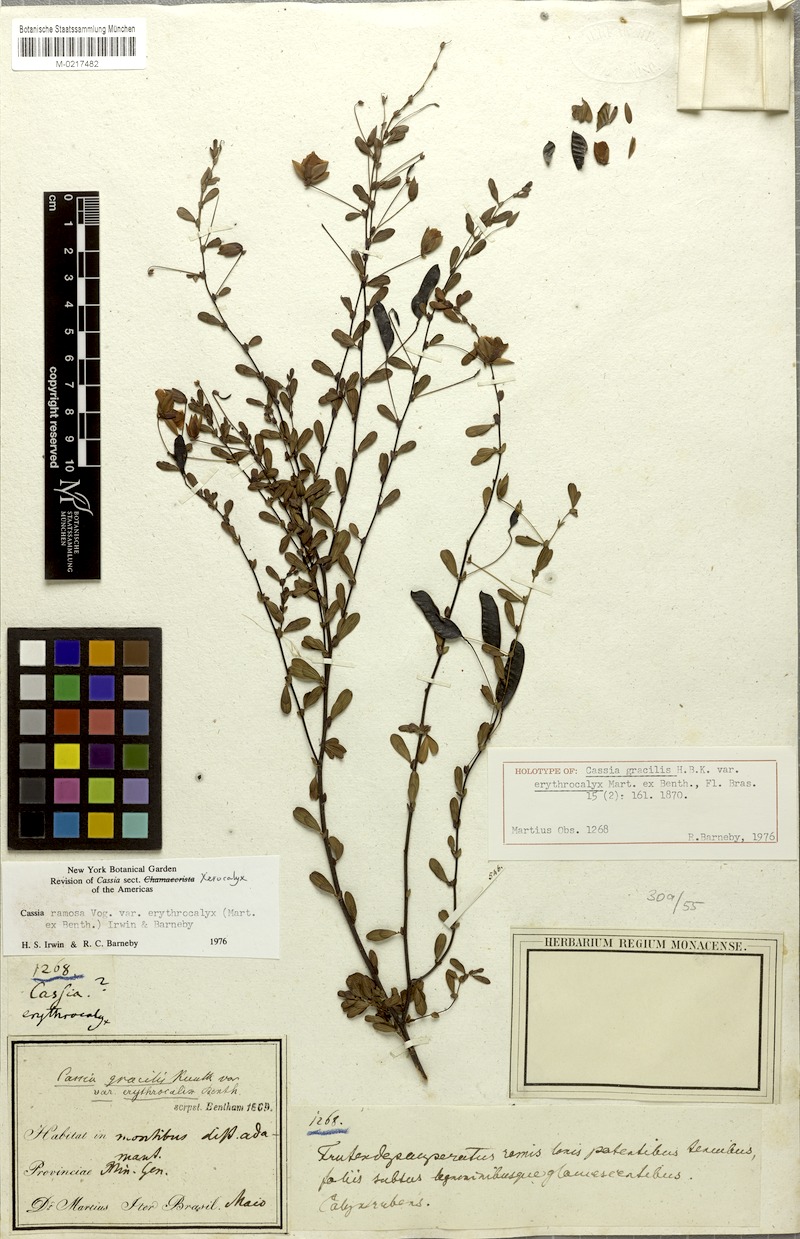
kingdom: Plantae
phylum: Tracheophyta
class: Magnoliopsida
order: Fabales
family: Fabaceae
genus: Chamaecrista
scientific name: Chamaecrista ramosa
